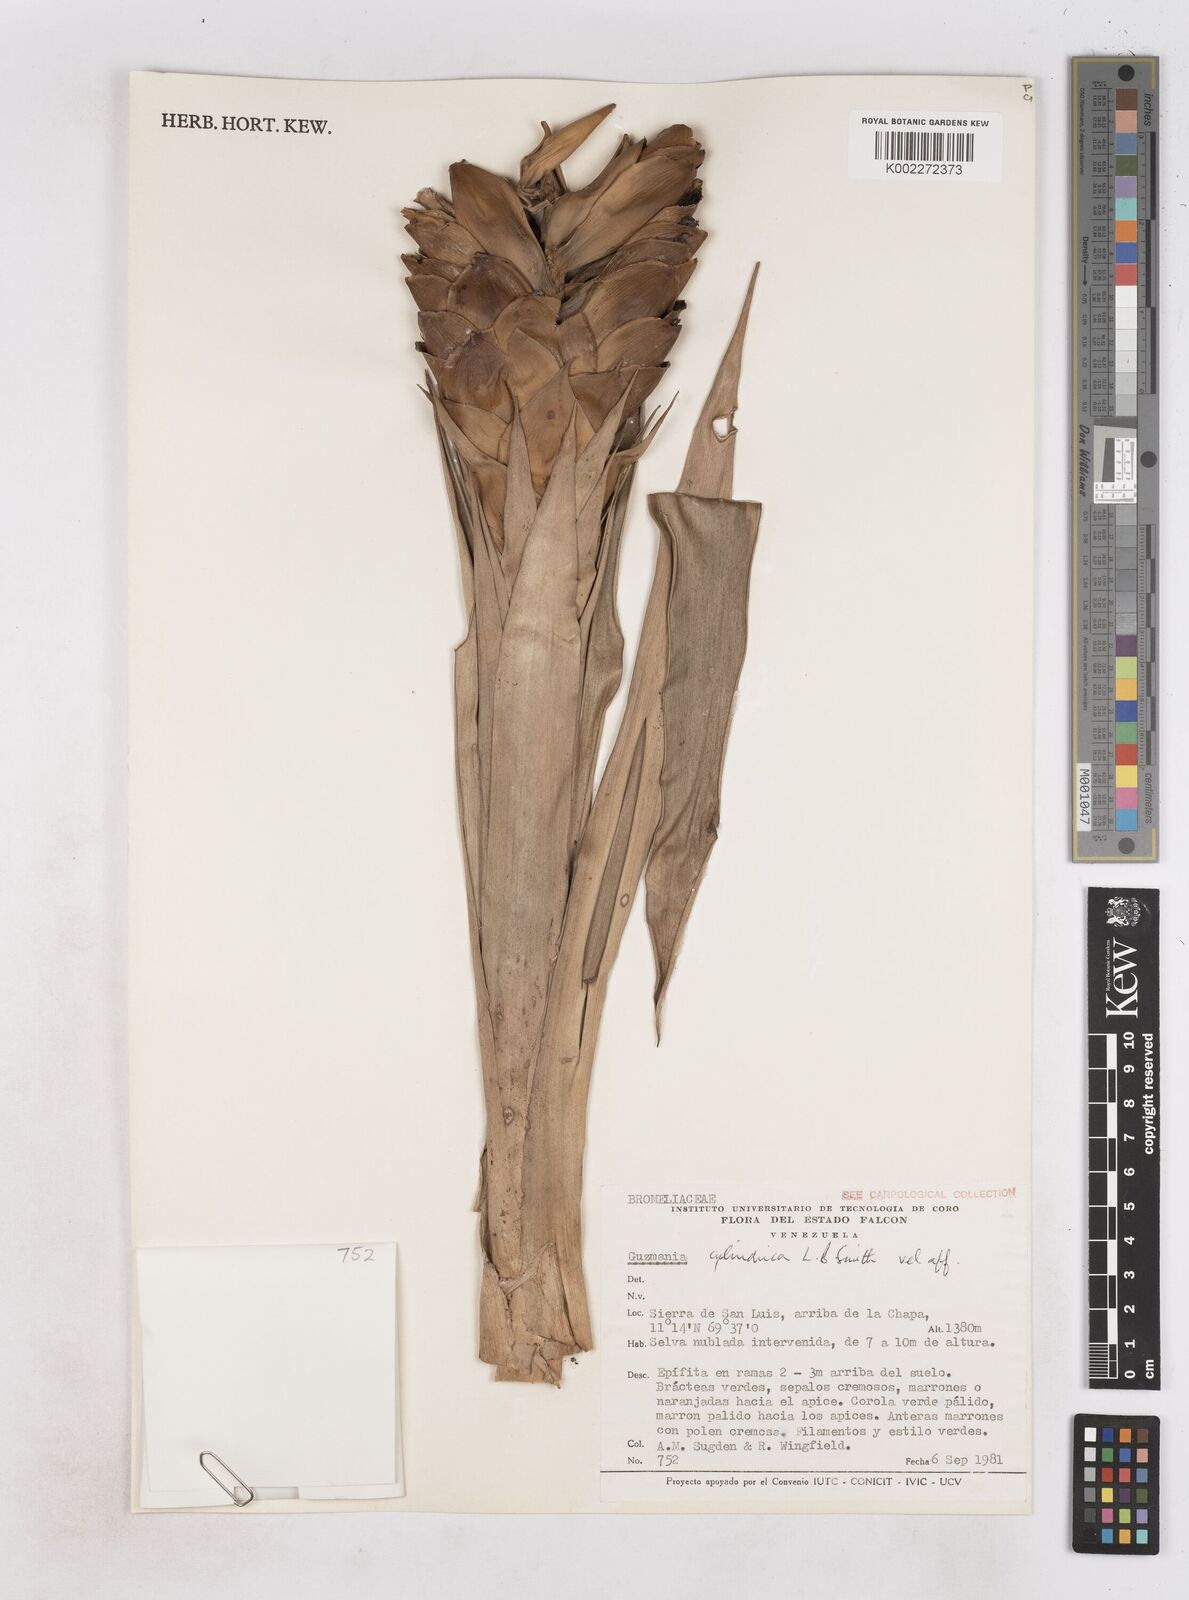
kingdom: Plantae
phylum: Tracheophyta
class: Liliopsida
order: Poales
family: Bromeliaceae
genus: Guzmania
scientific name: Guzmania cylindrica
